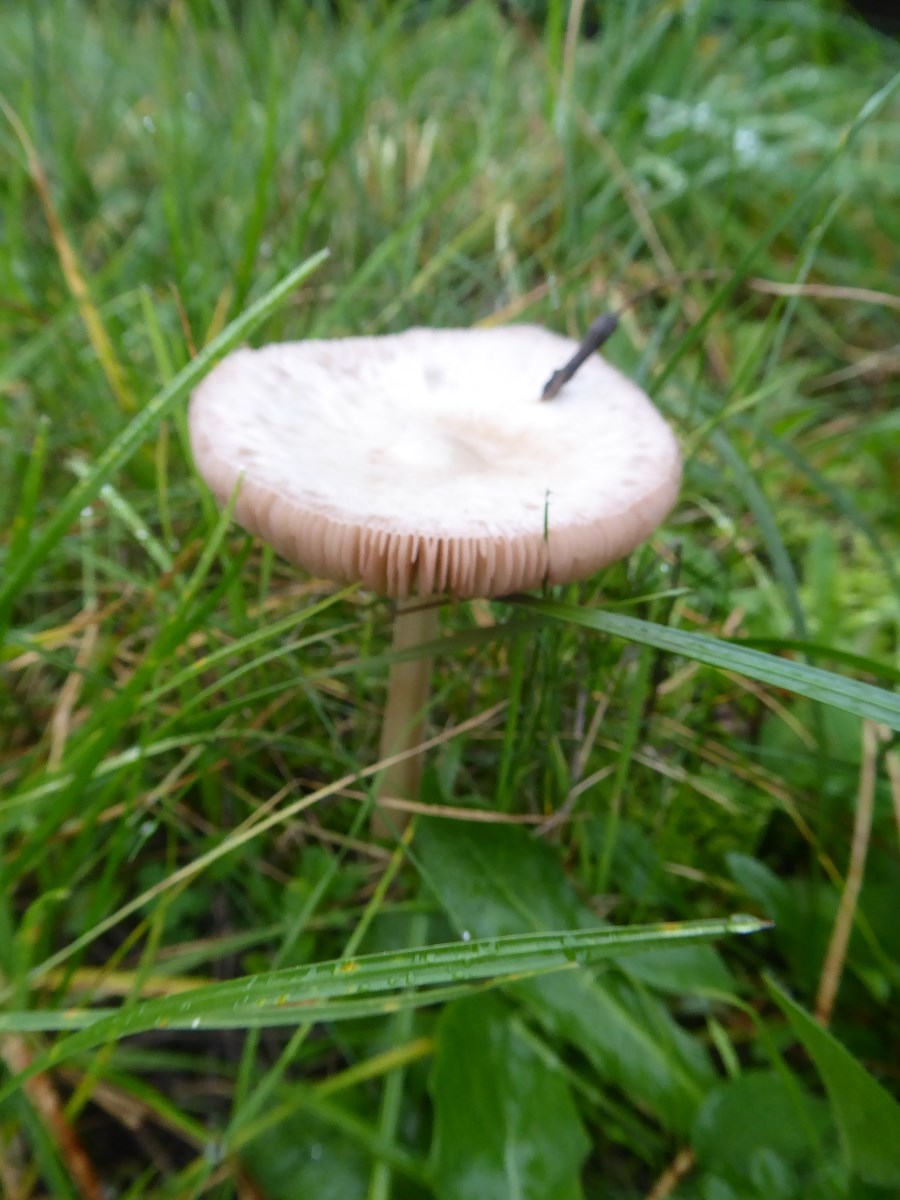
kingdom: Fungi
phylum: Basidiomycota
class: Agaricomycetes
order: Agaricales
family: Pluteaceae
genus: Volvopluteus
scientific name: Volvopluteus gloiocephalus
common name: høj posesvamp
